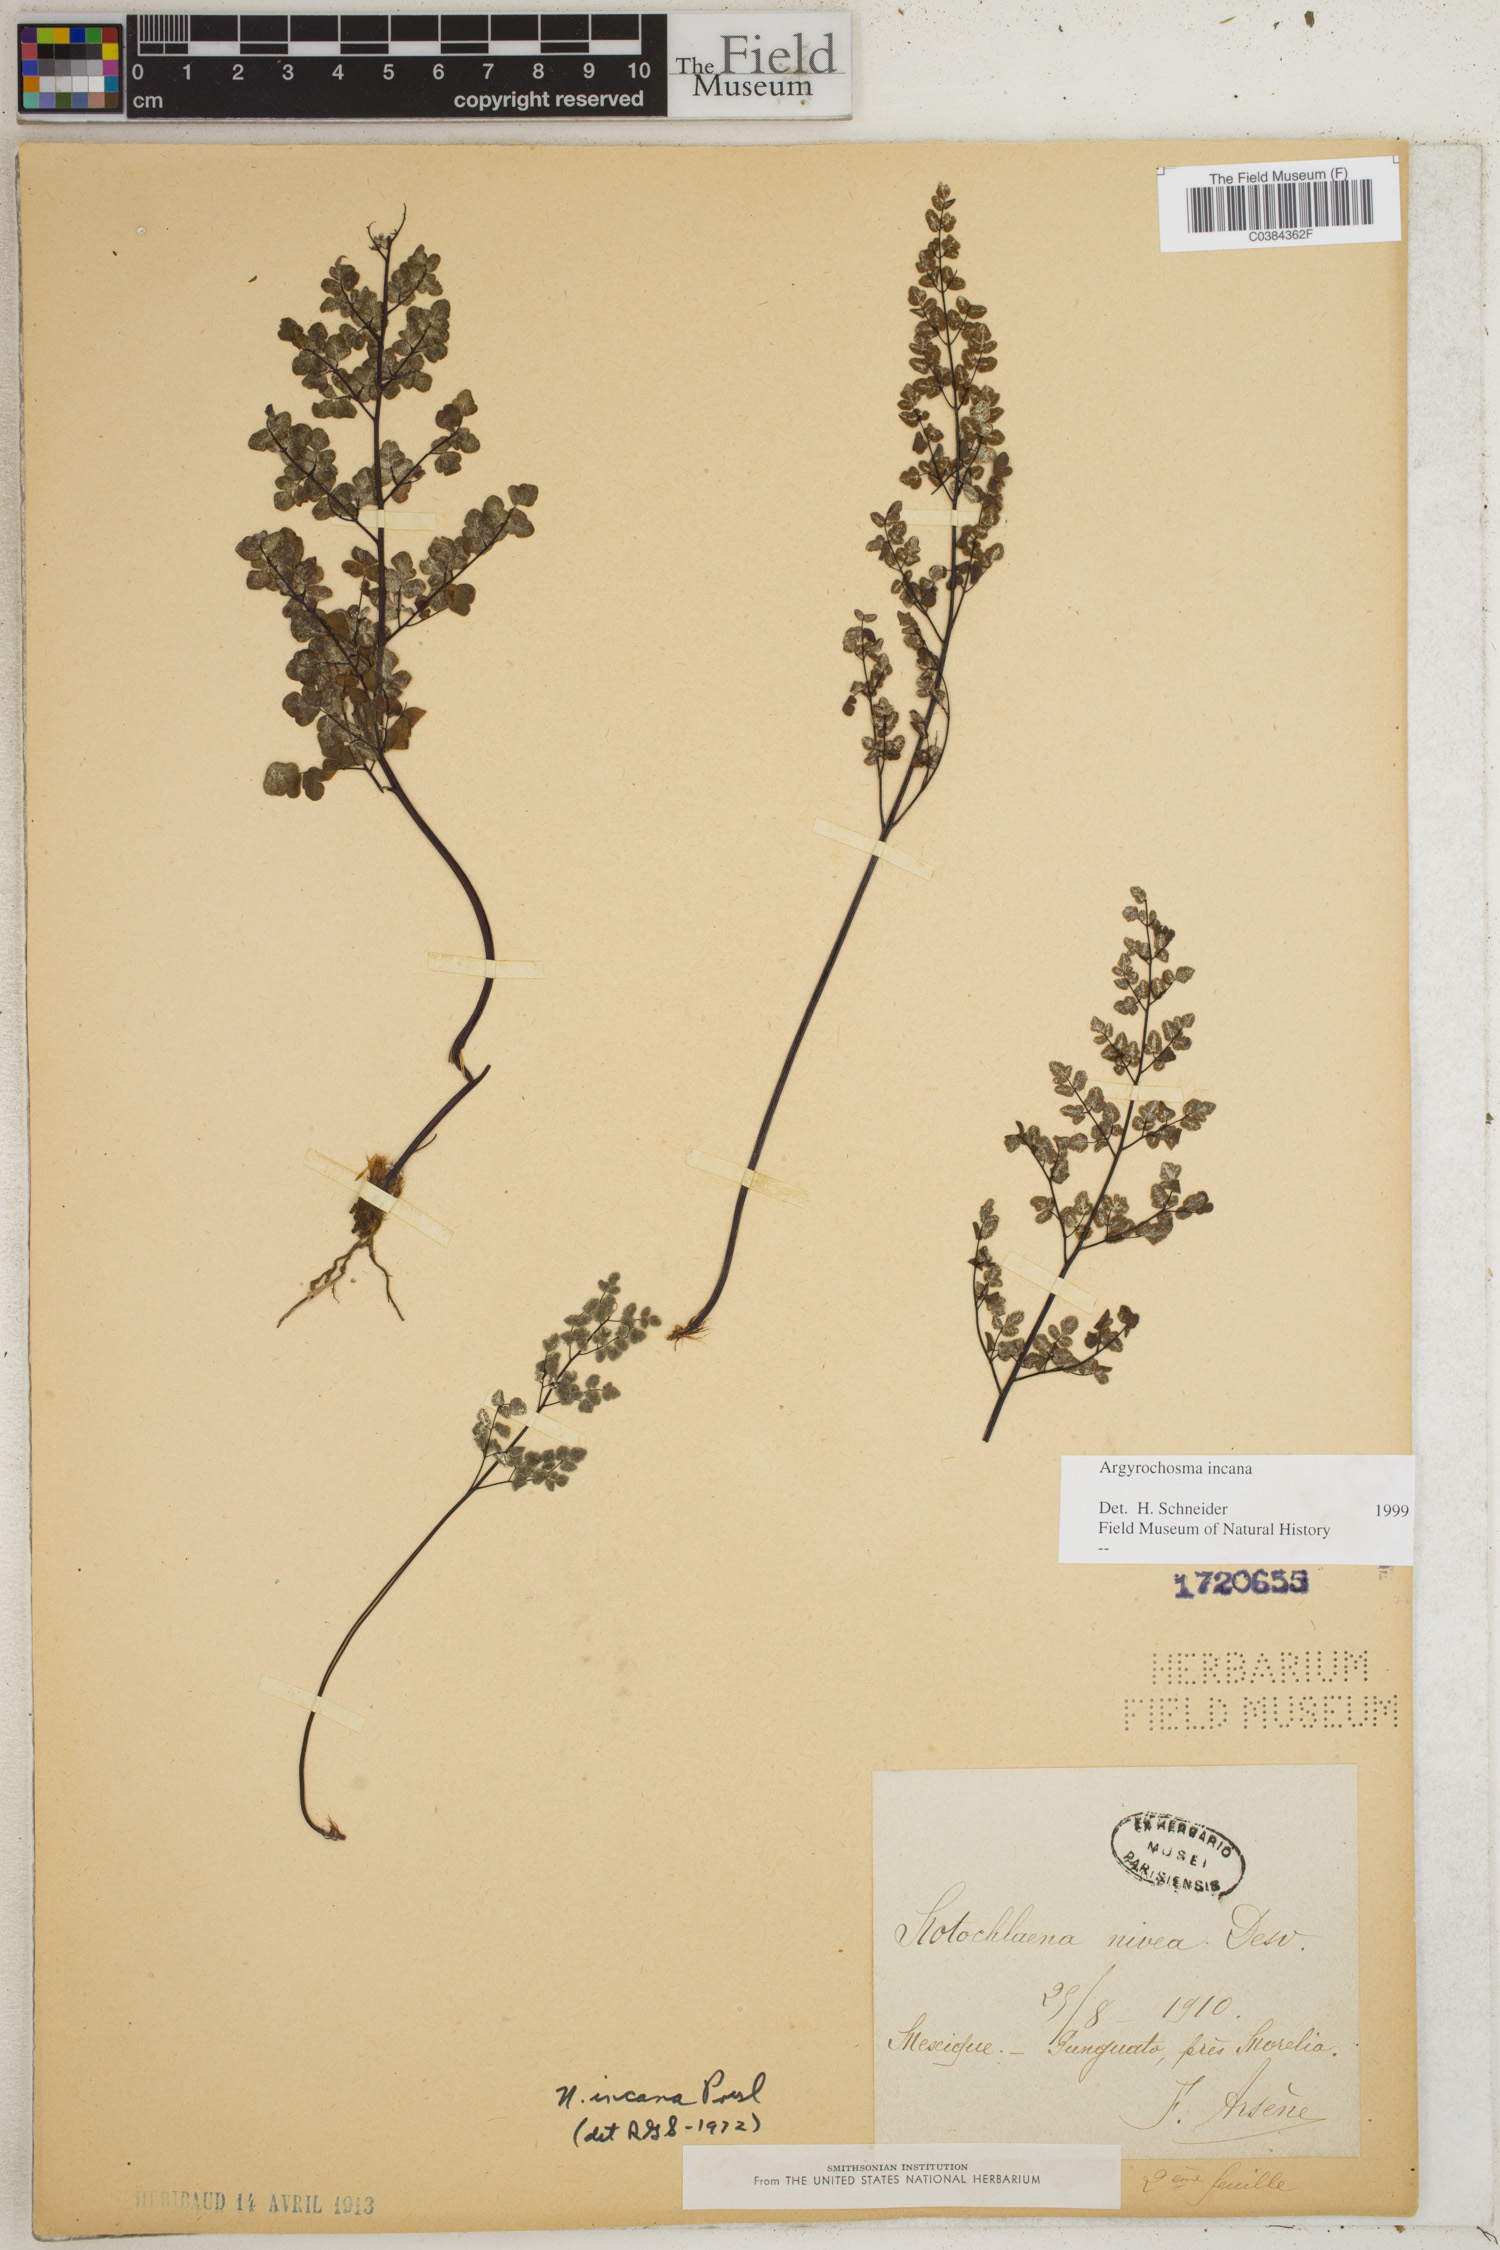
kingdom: Plantae
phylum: Tracheophyta
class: Polypodiopsida
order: Polypodiales
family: Pteridaceae
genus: Argyrochosma
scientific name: Argyrochosma incana
